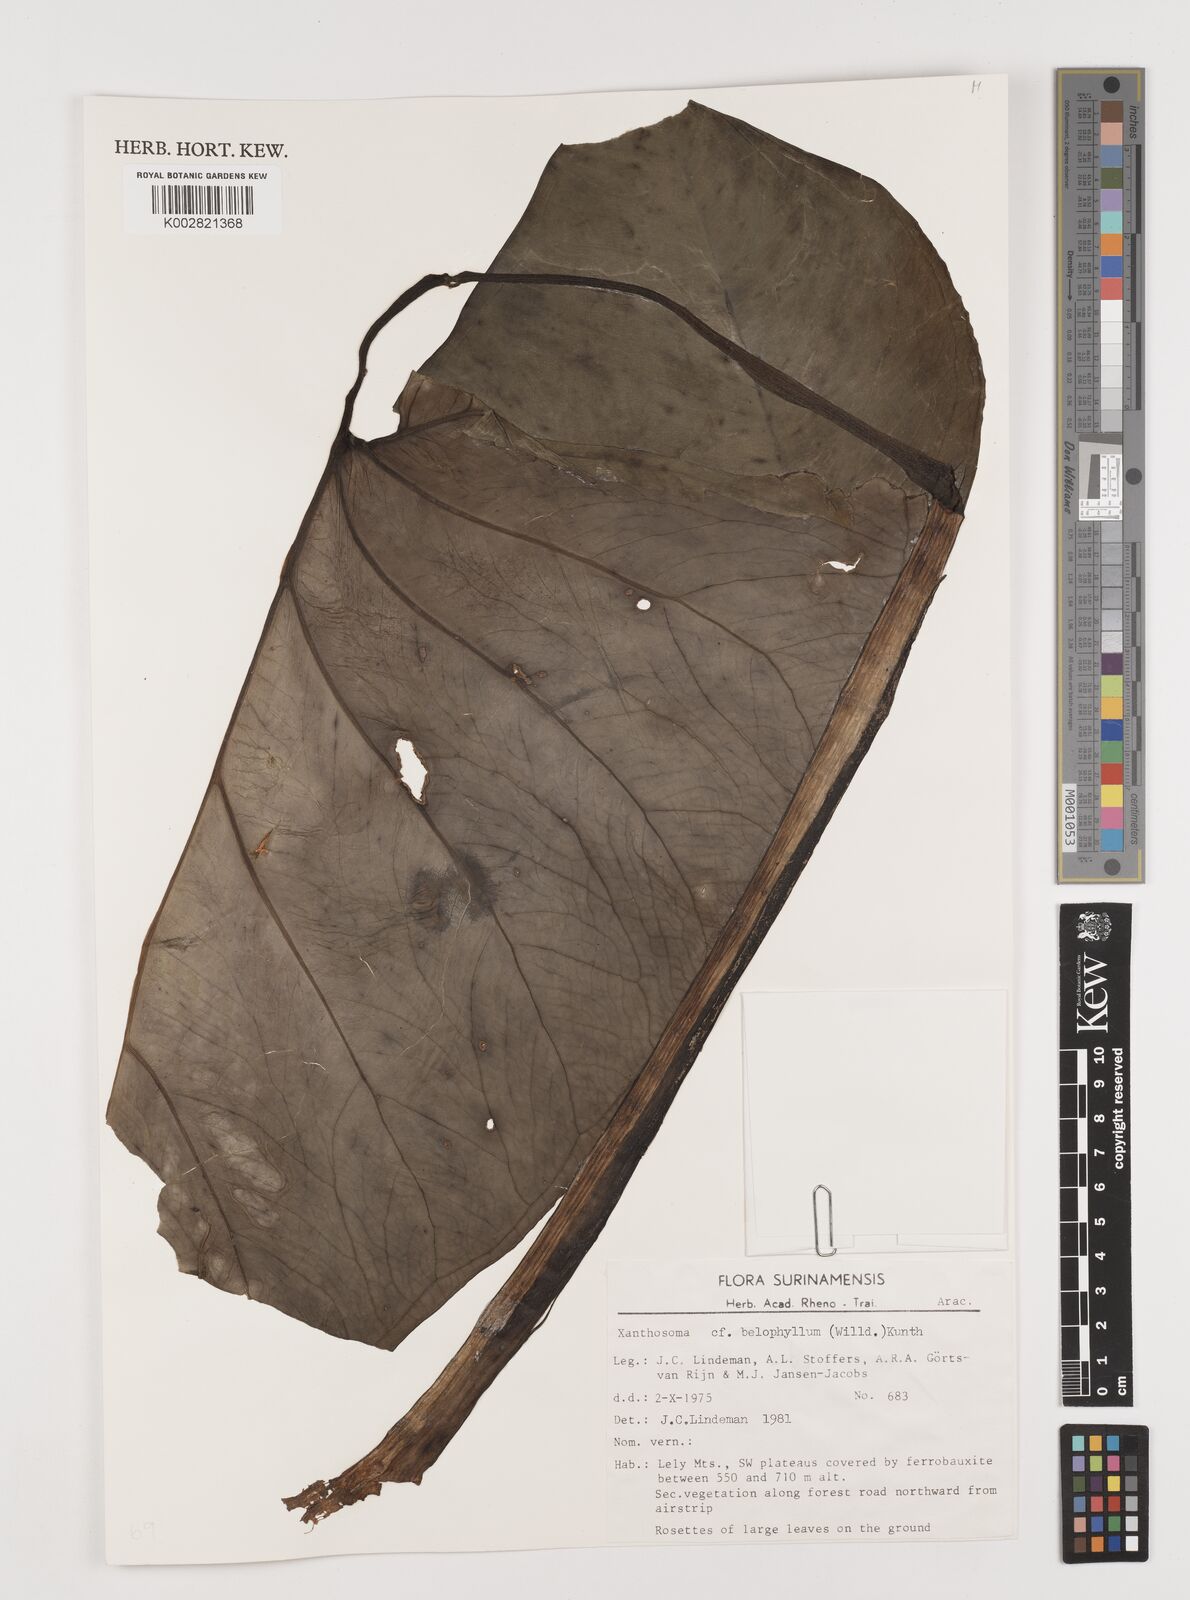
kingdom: Plantae
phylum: Tracheophyta
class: Liliopsida
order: Alismatales
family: Araceae
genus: Xanthosoma
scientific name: Xanthosoma belophyllum
